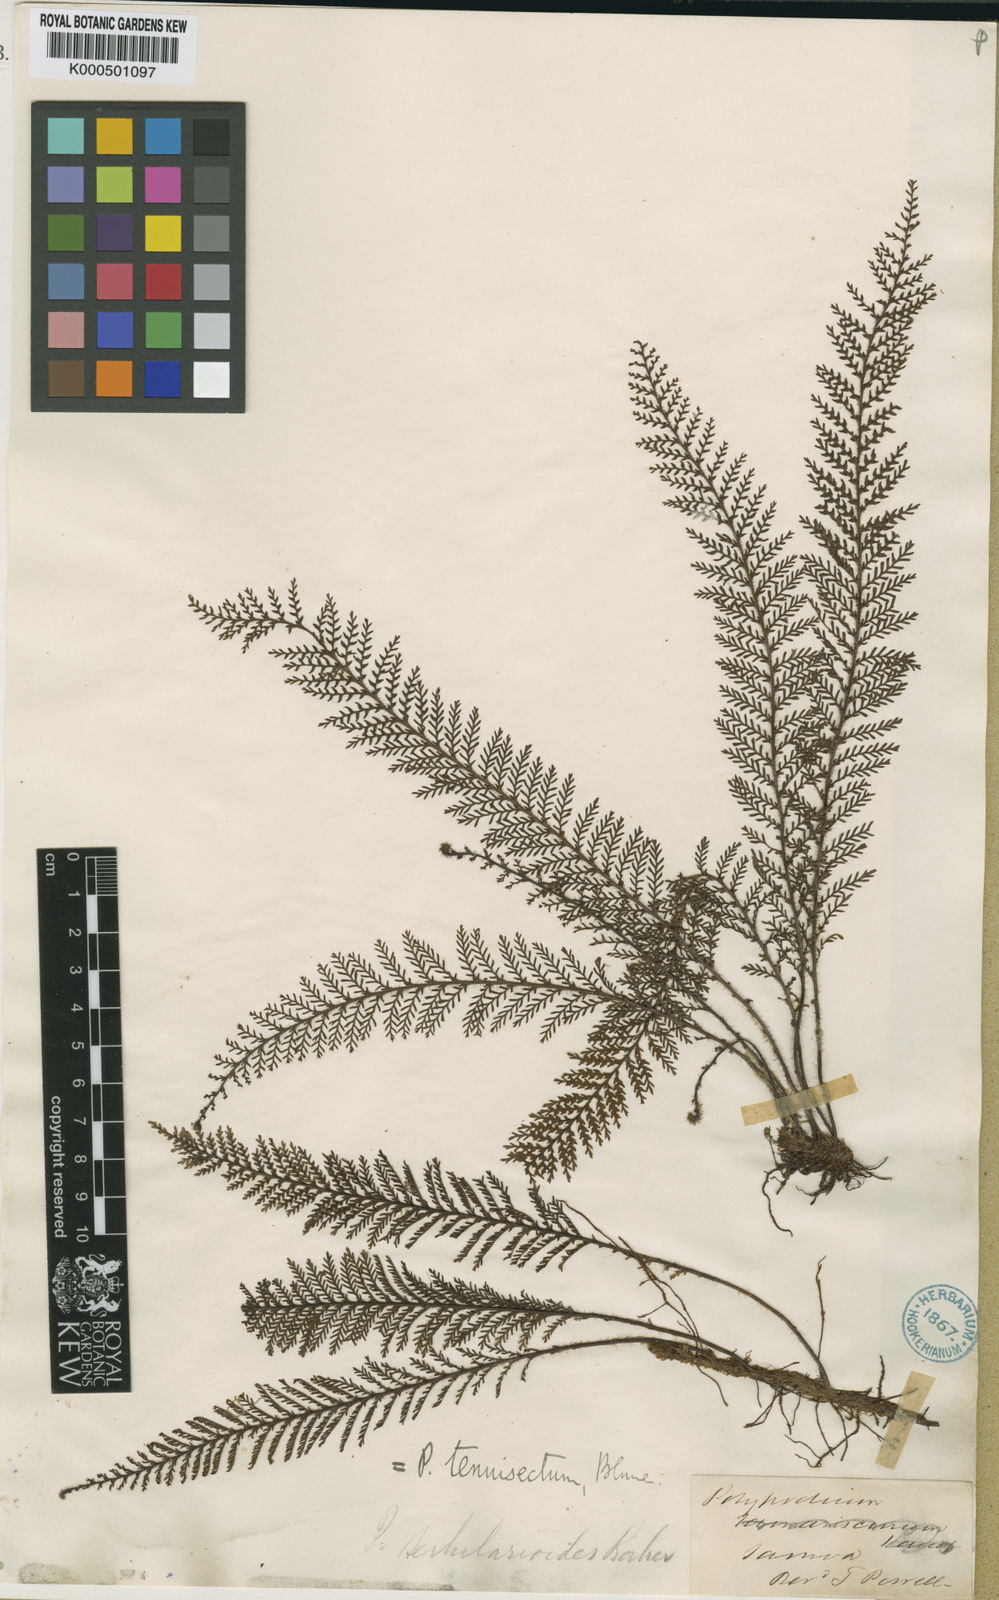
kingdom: Plantae
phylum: Tracheophyta
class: Polypodiopsida
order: Polypodiales
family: Polypodiaceae
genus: Oreogrammitis
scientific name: Oreogrammitis tenuisecta
